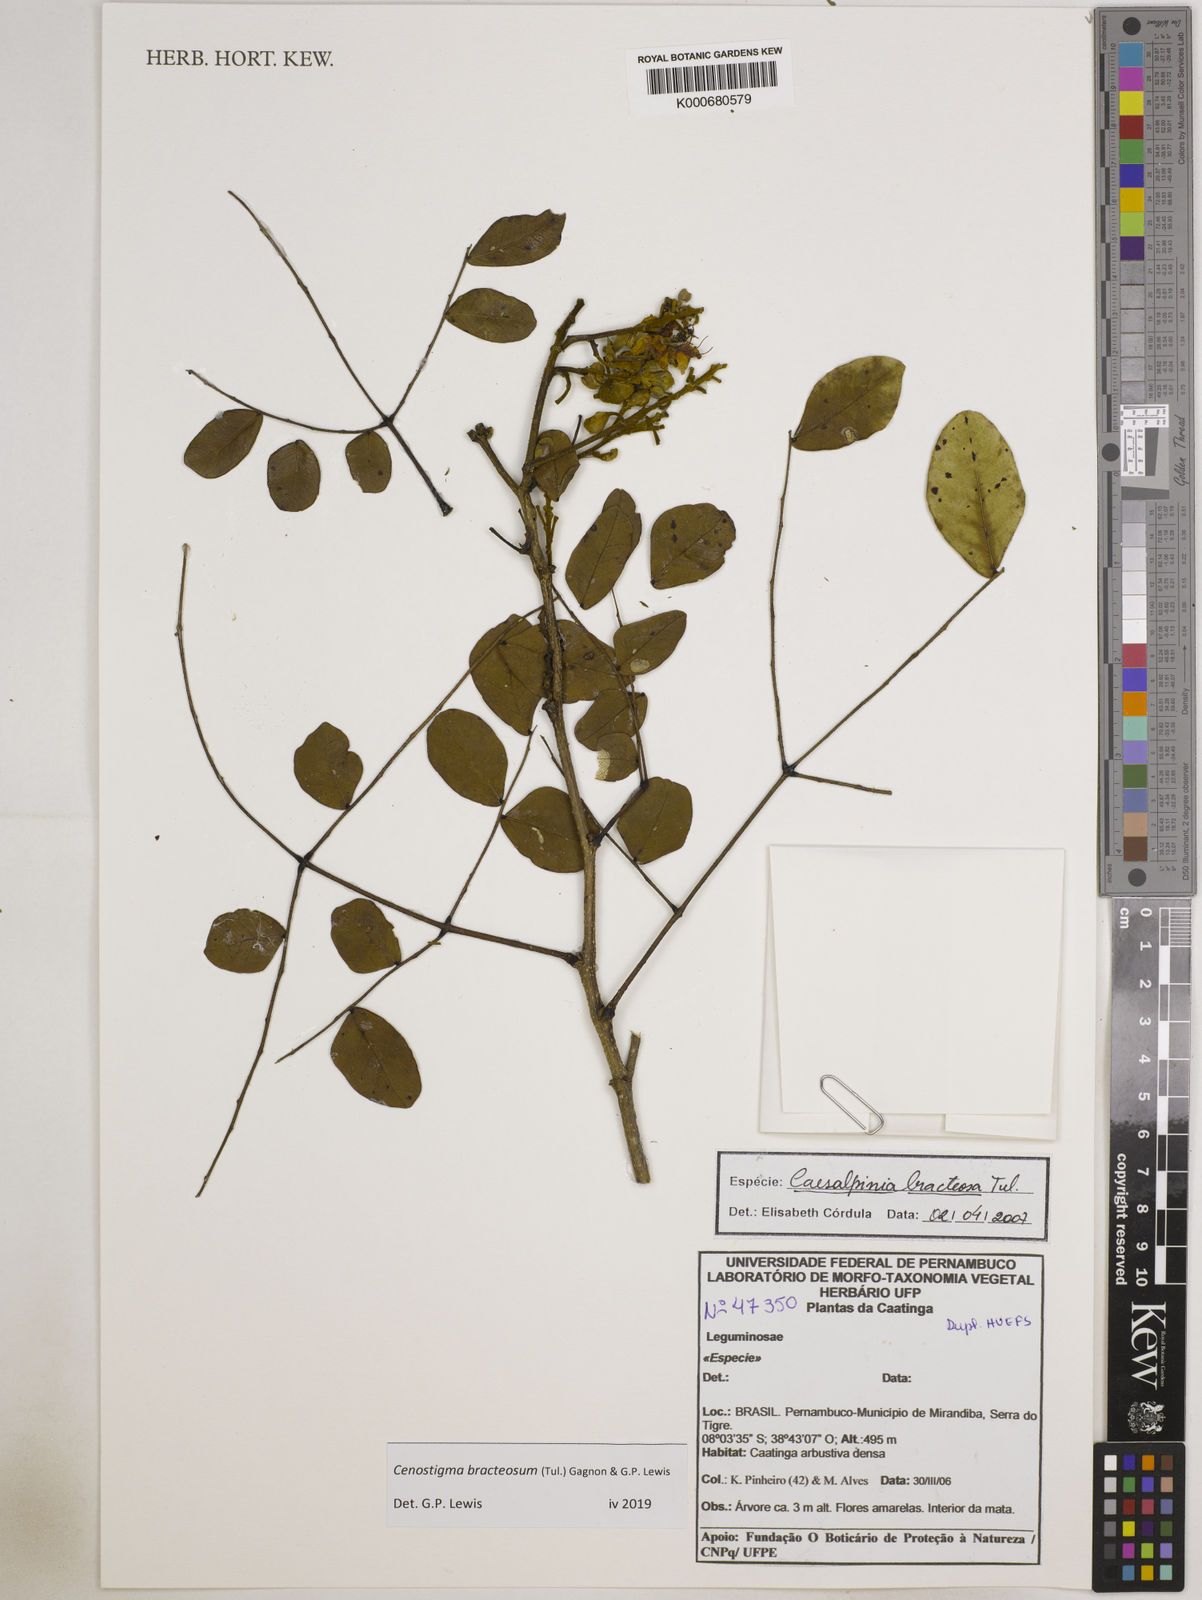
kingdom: Plantae
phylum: Tracheophyta
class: Magnoliopsida
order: Fabales
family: Fabaceae
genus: Cenostigma
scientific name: Cenostigma bracteosum
